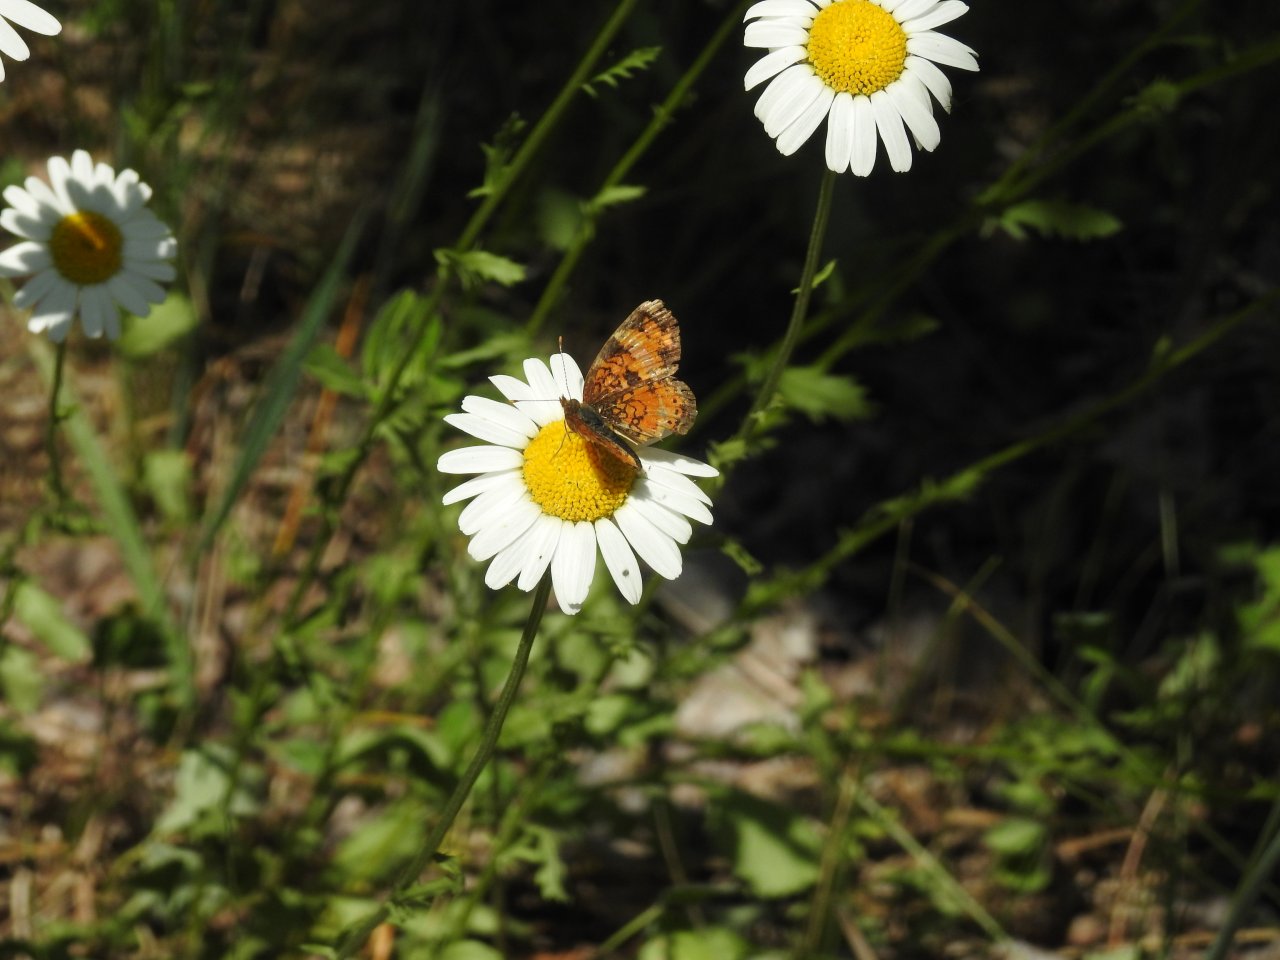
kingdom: Animalia
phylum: Arthropoda
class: Insecta
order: Lepidoptera
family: Nymphalidae
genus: Phyciodes
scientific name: Phyciodes tharos
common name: Northern Crescent
